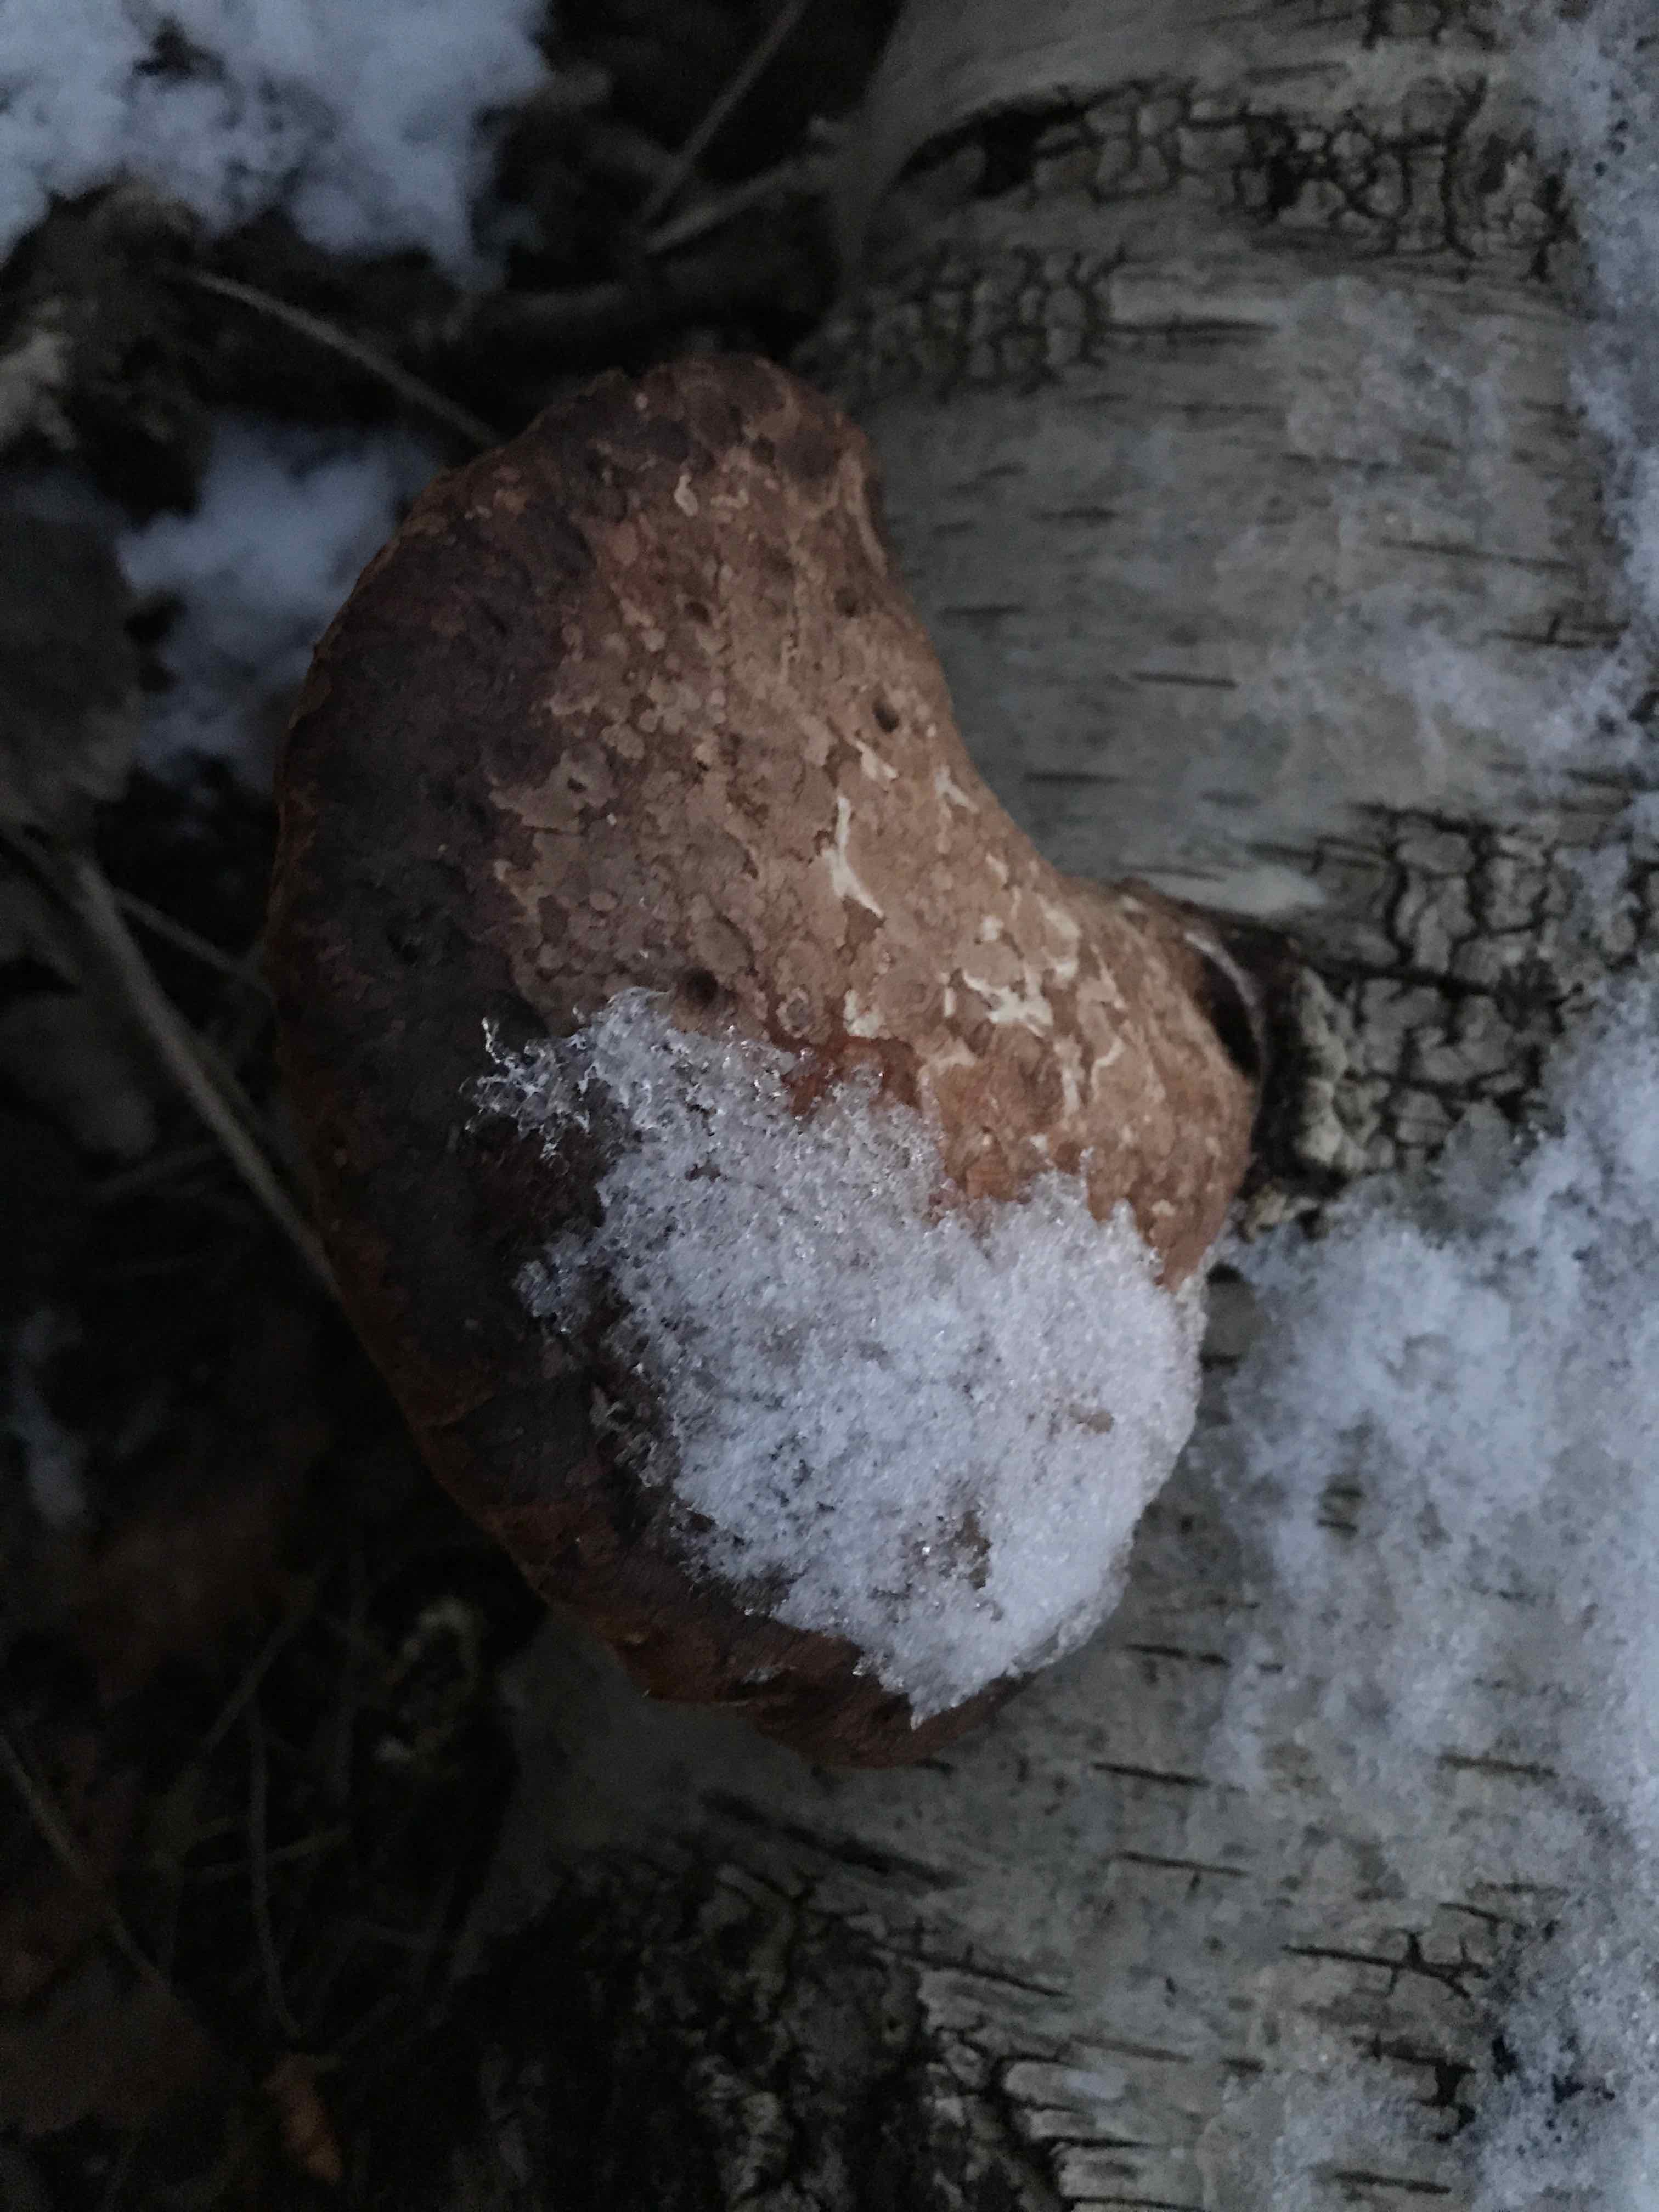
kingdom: Fungi
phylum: Basidiomycota
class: Agaricomycetes
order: Polyporales
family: Fomitopsidaceae
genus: Fomitopsis
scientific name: Fomitopsis betulina
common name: birkeporesvamp
